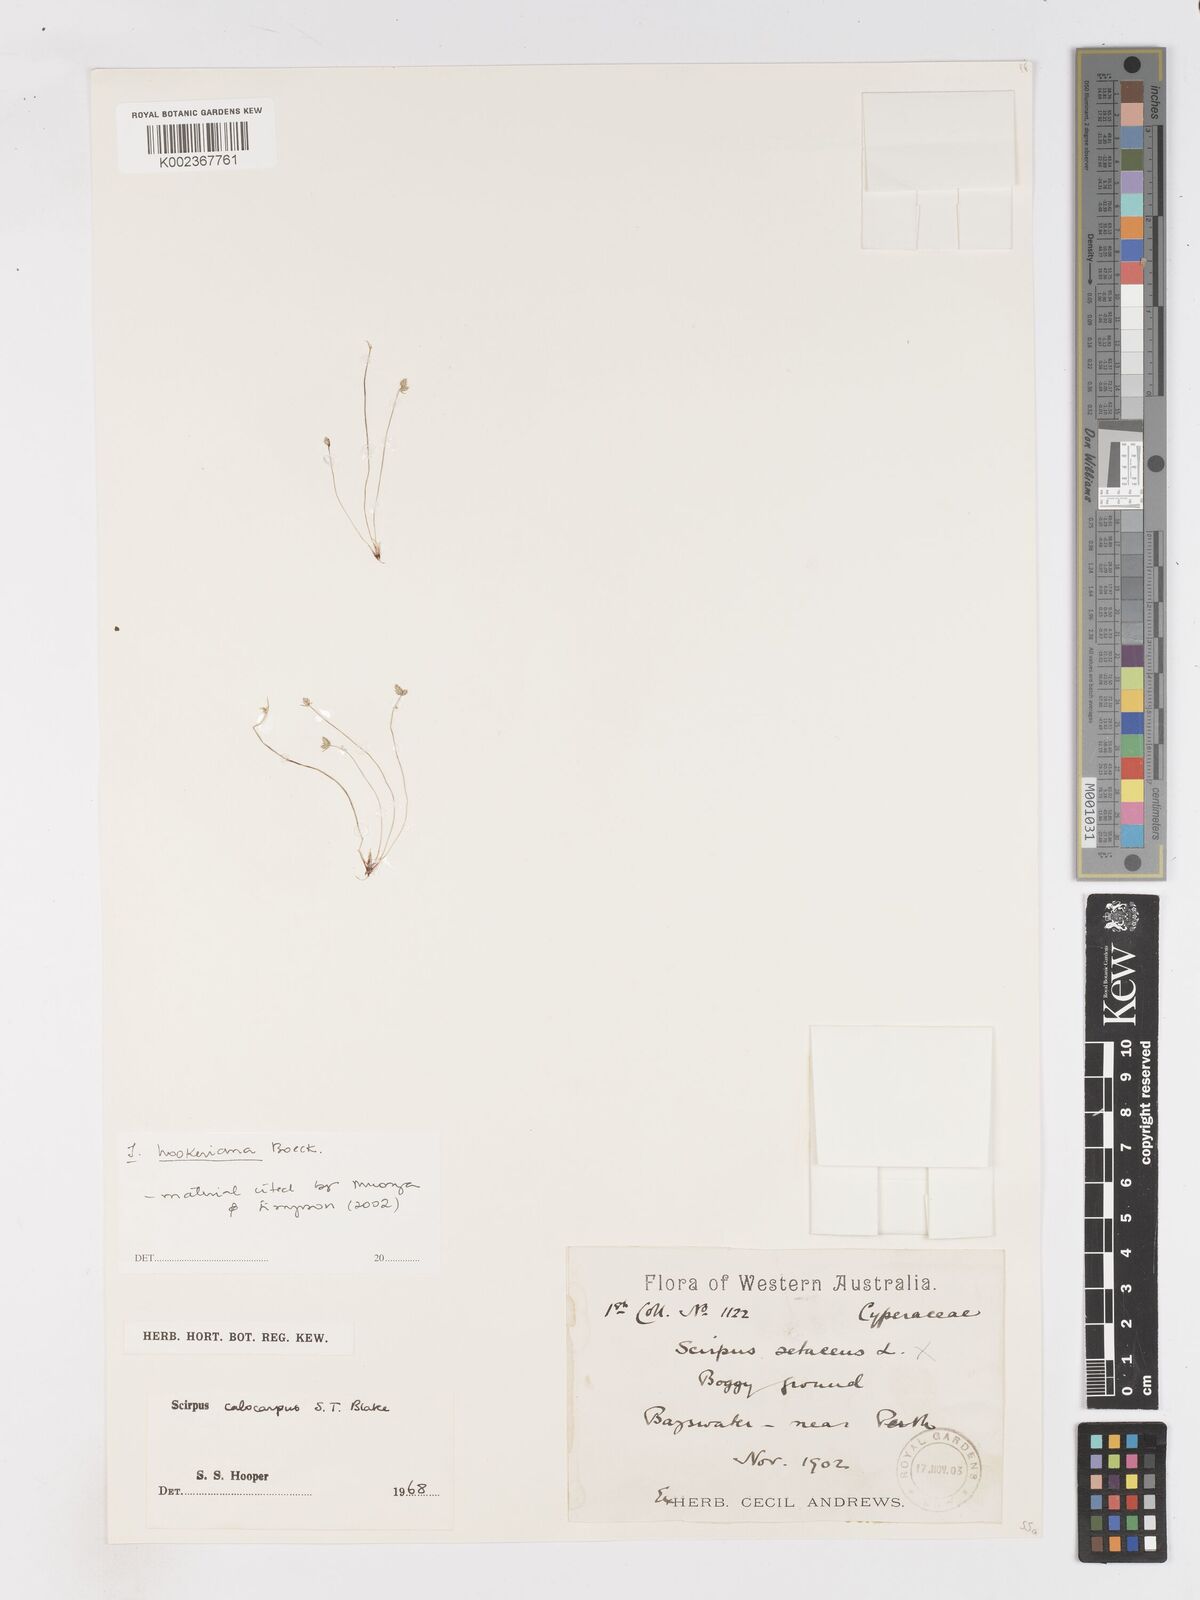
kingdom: Plantae
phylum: Tracheophyta
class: Liliopsida
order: Poales
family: Cyperaceae
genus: Isolepis
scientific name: Isolepis multicaulis
